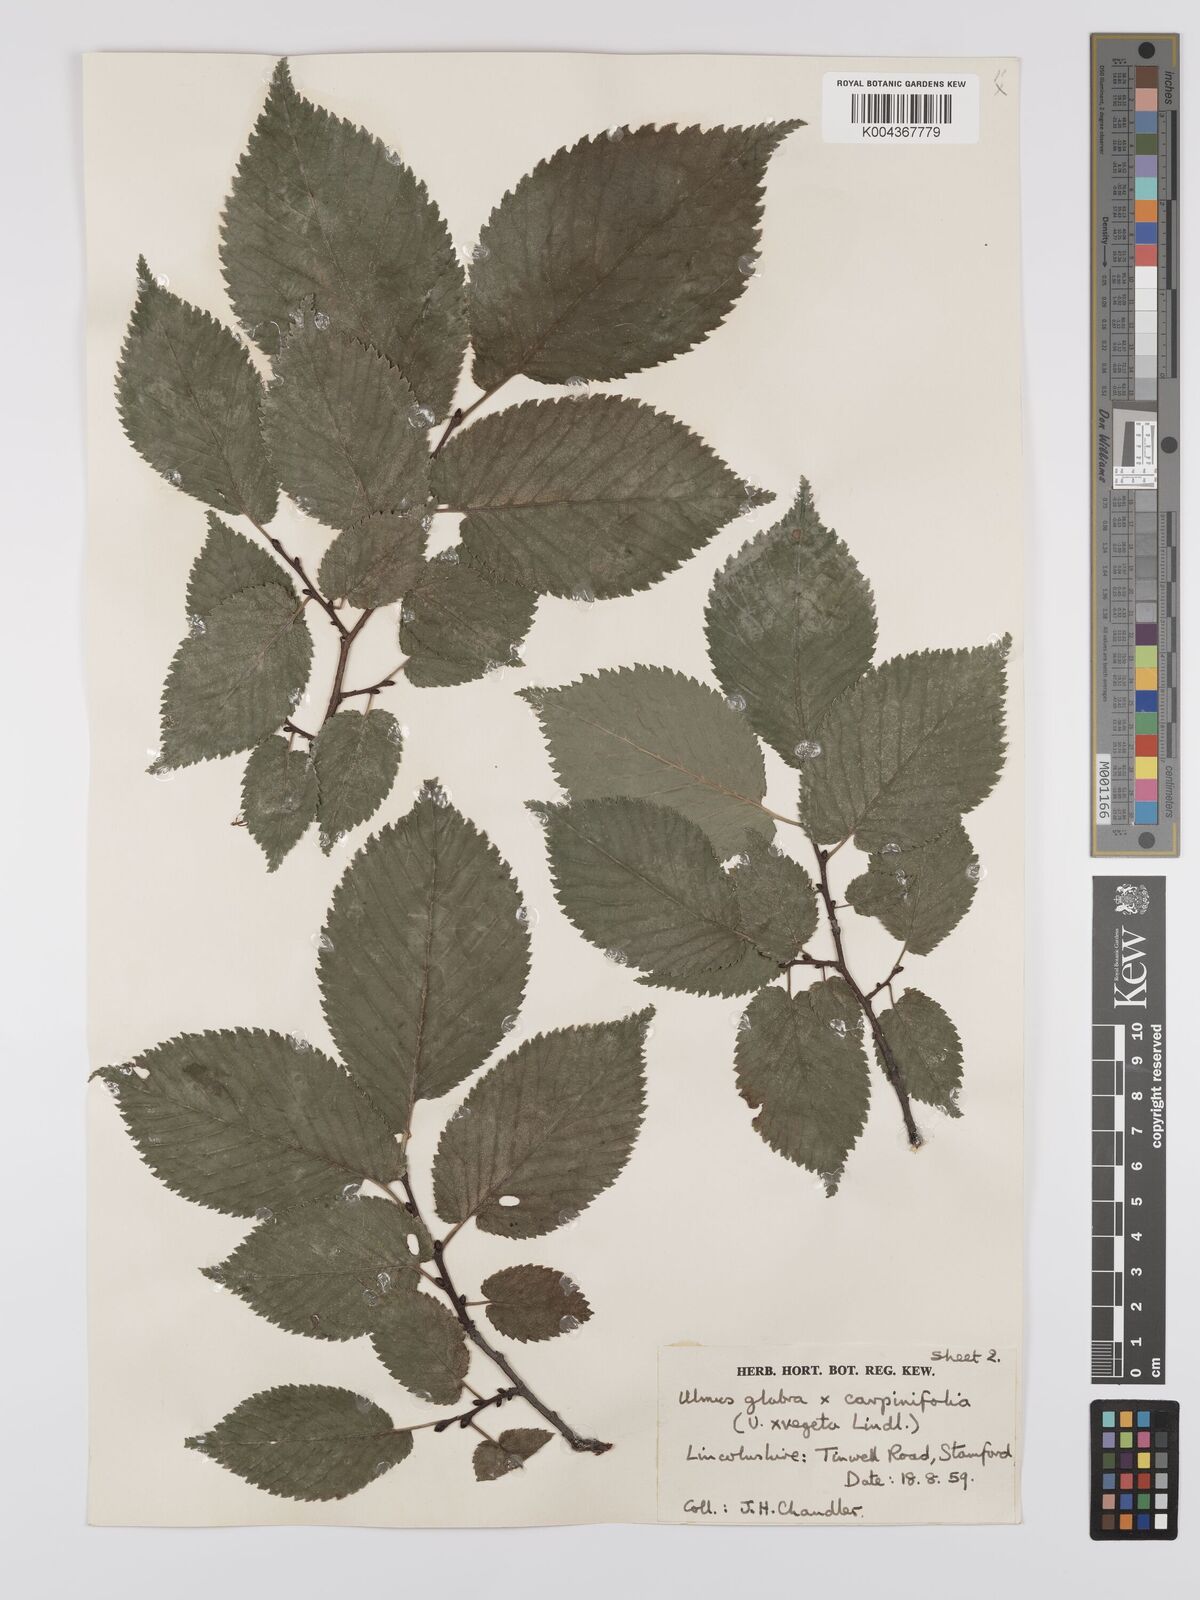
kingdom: Plantae
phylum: Tracheophyta
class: Magnoliopsida
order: Rosales
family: Ulmaceae
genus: Ulmus
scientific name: Ulmus
